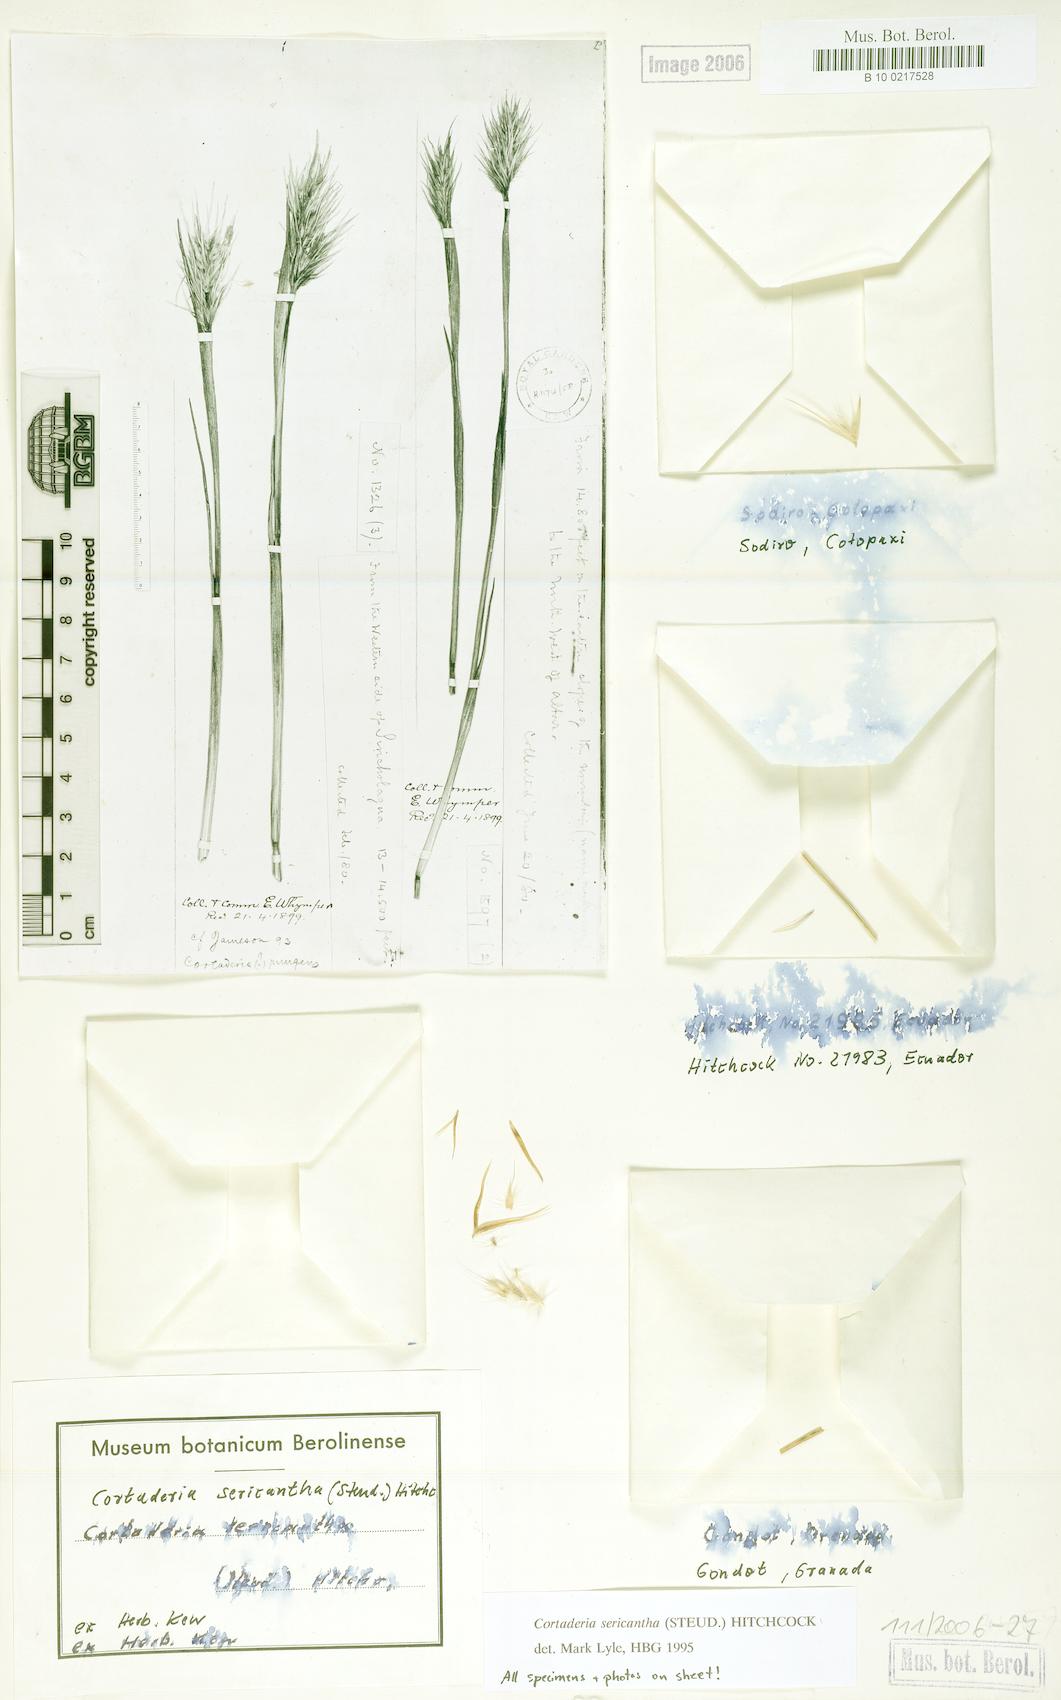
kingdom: Plantae
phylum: Tracheophyta
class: Liliopsida
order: Poales
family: Poaceae
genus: Cortaderia
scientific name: Cortaderia sericantha
